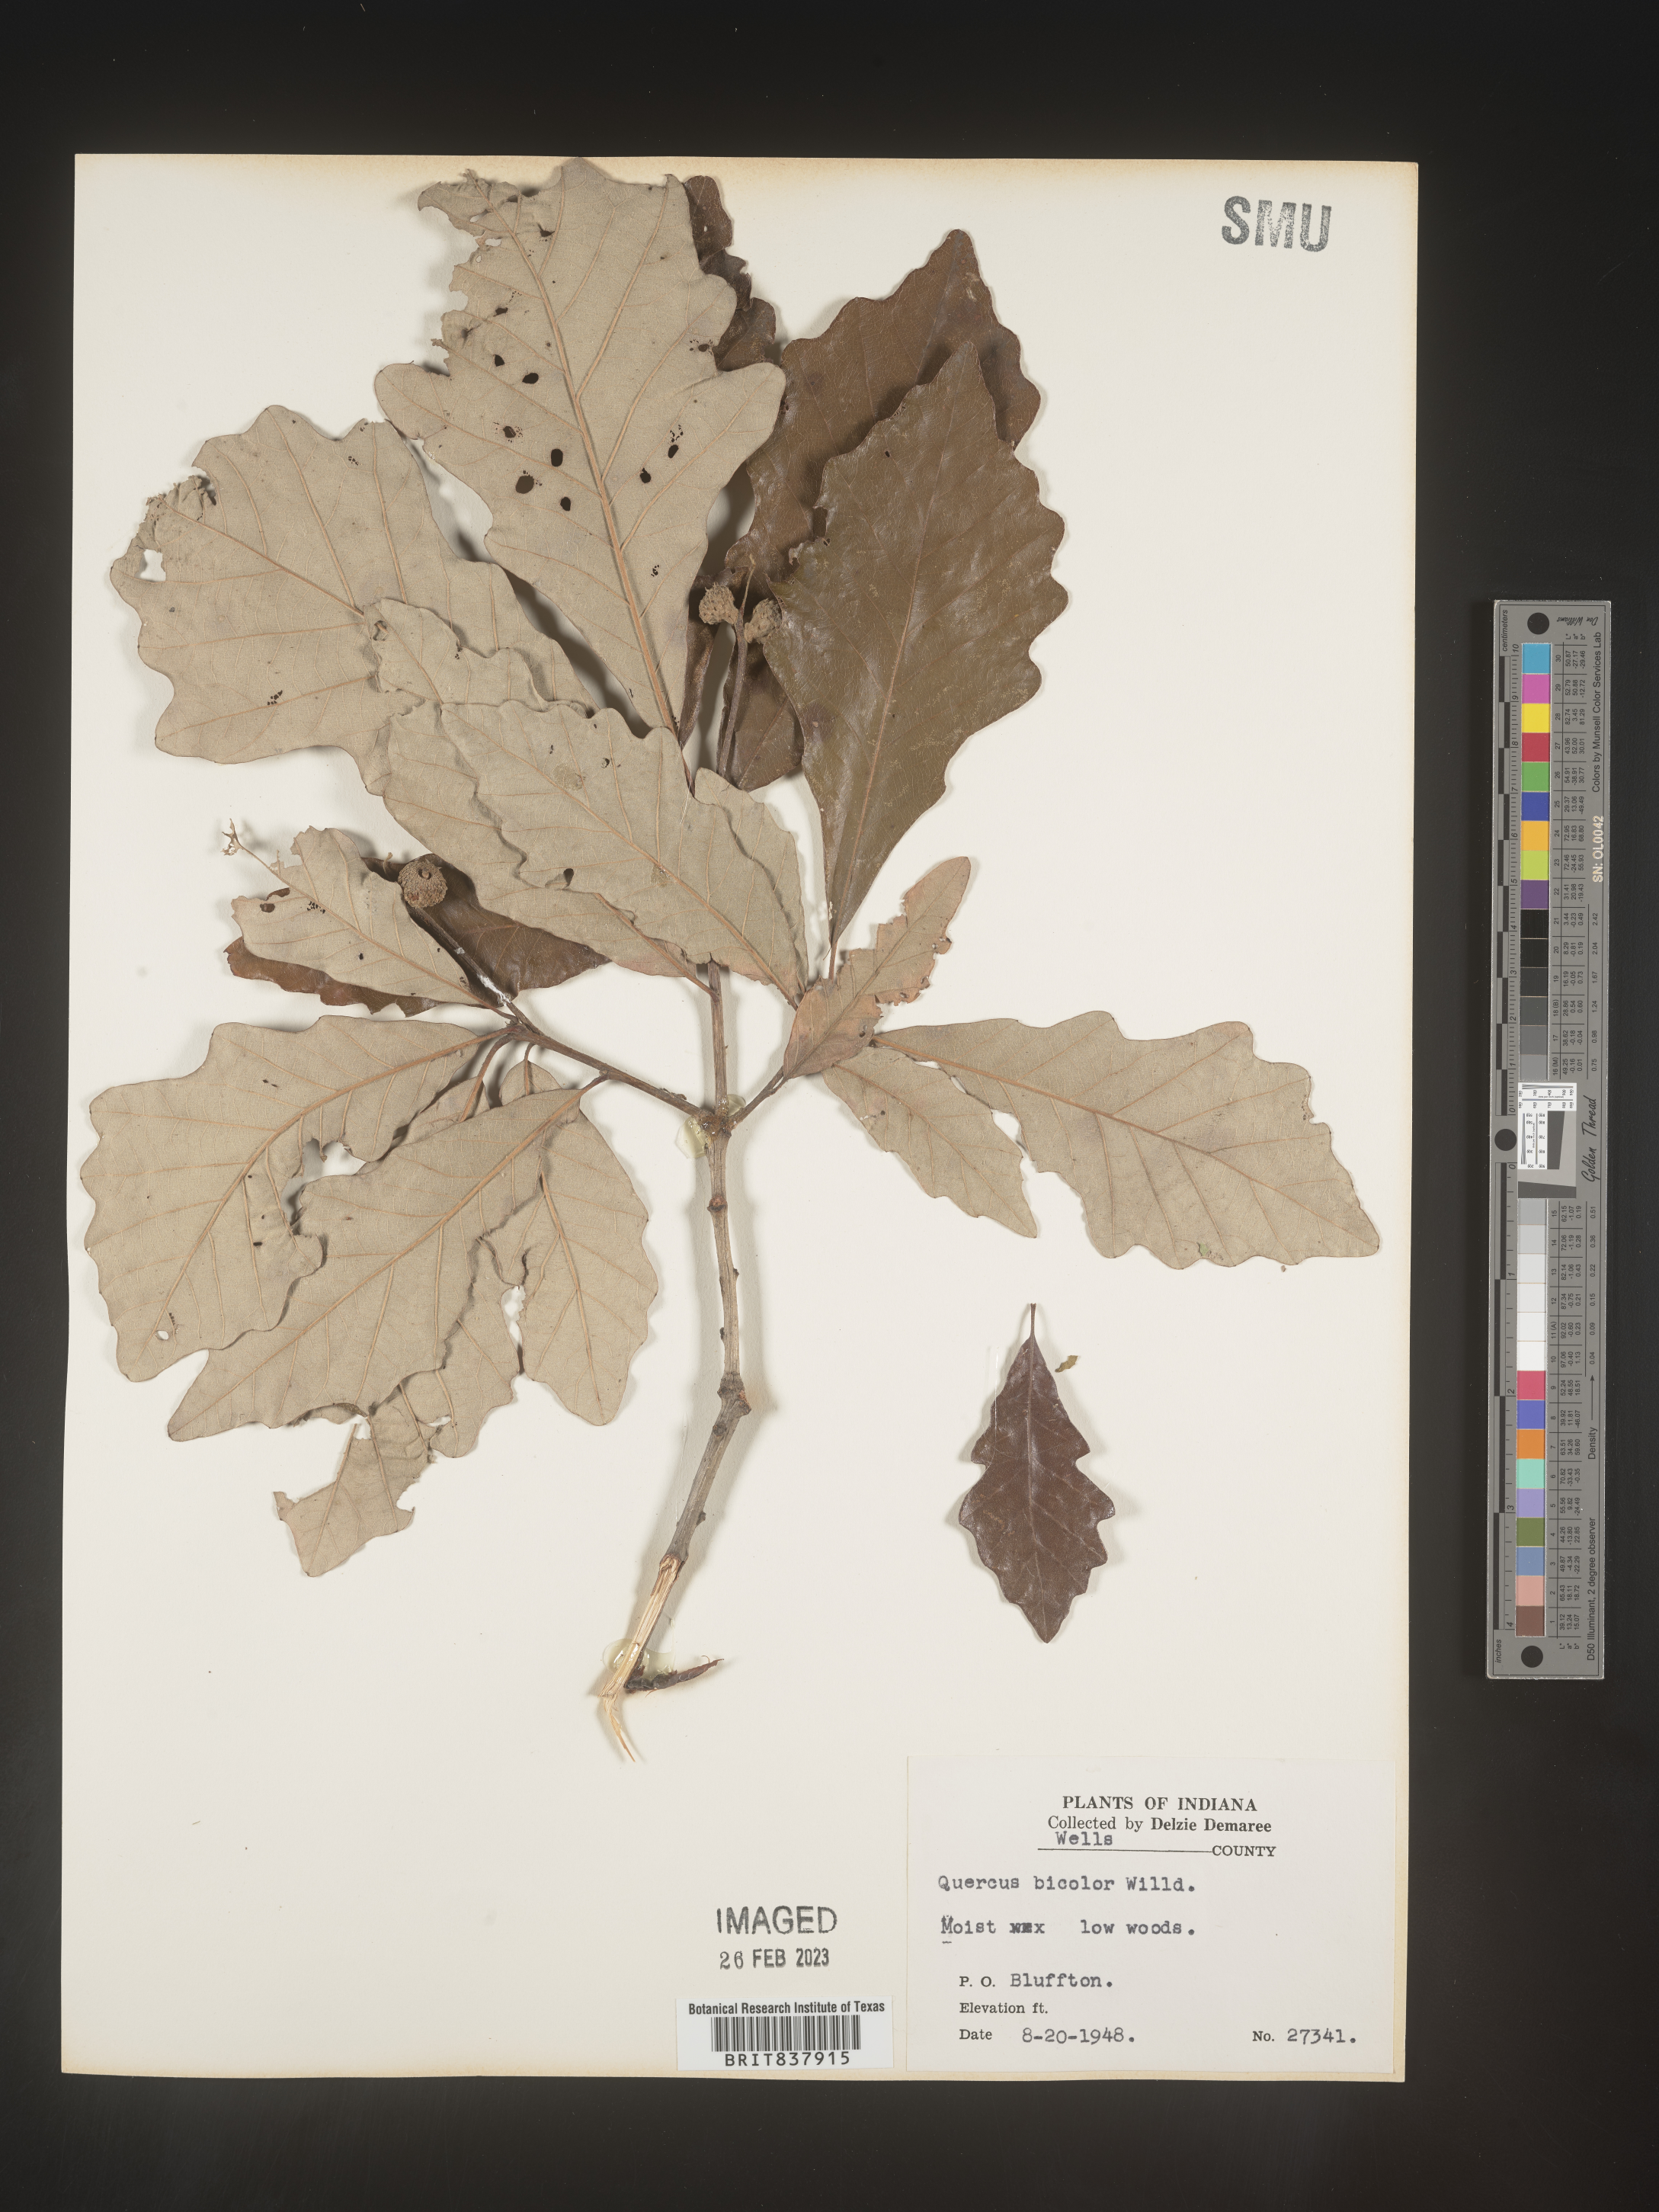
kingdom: Plantae
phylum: Tracheophyta
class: Magnoliopsida
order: Fagales
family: Fagaceae
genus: Quercus
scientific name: Quercus bicolor
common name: Swamp white oak
